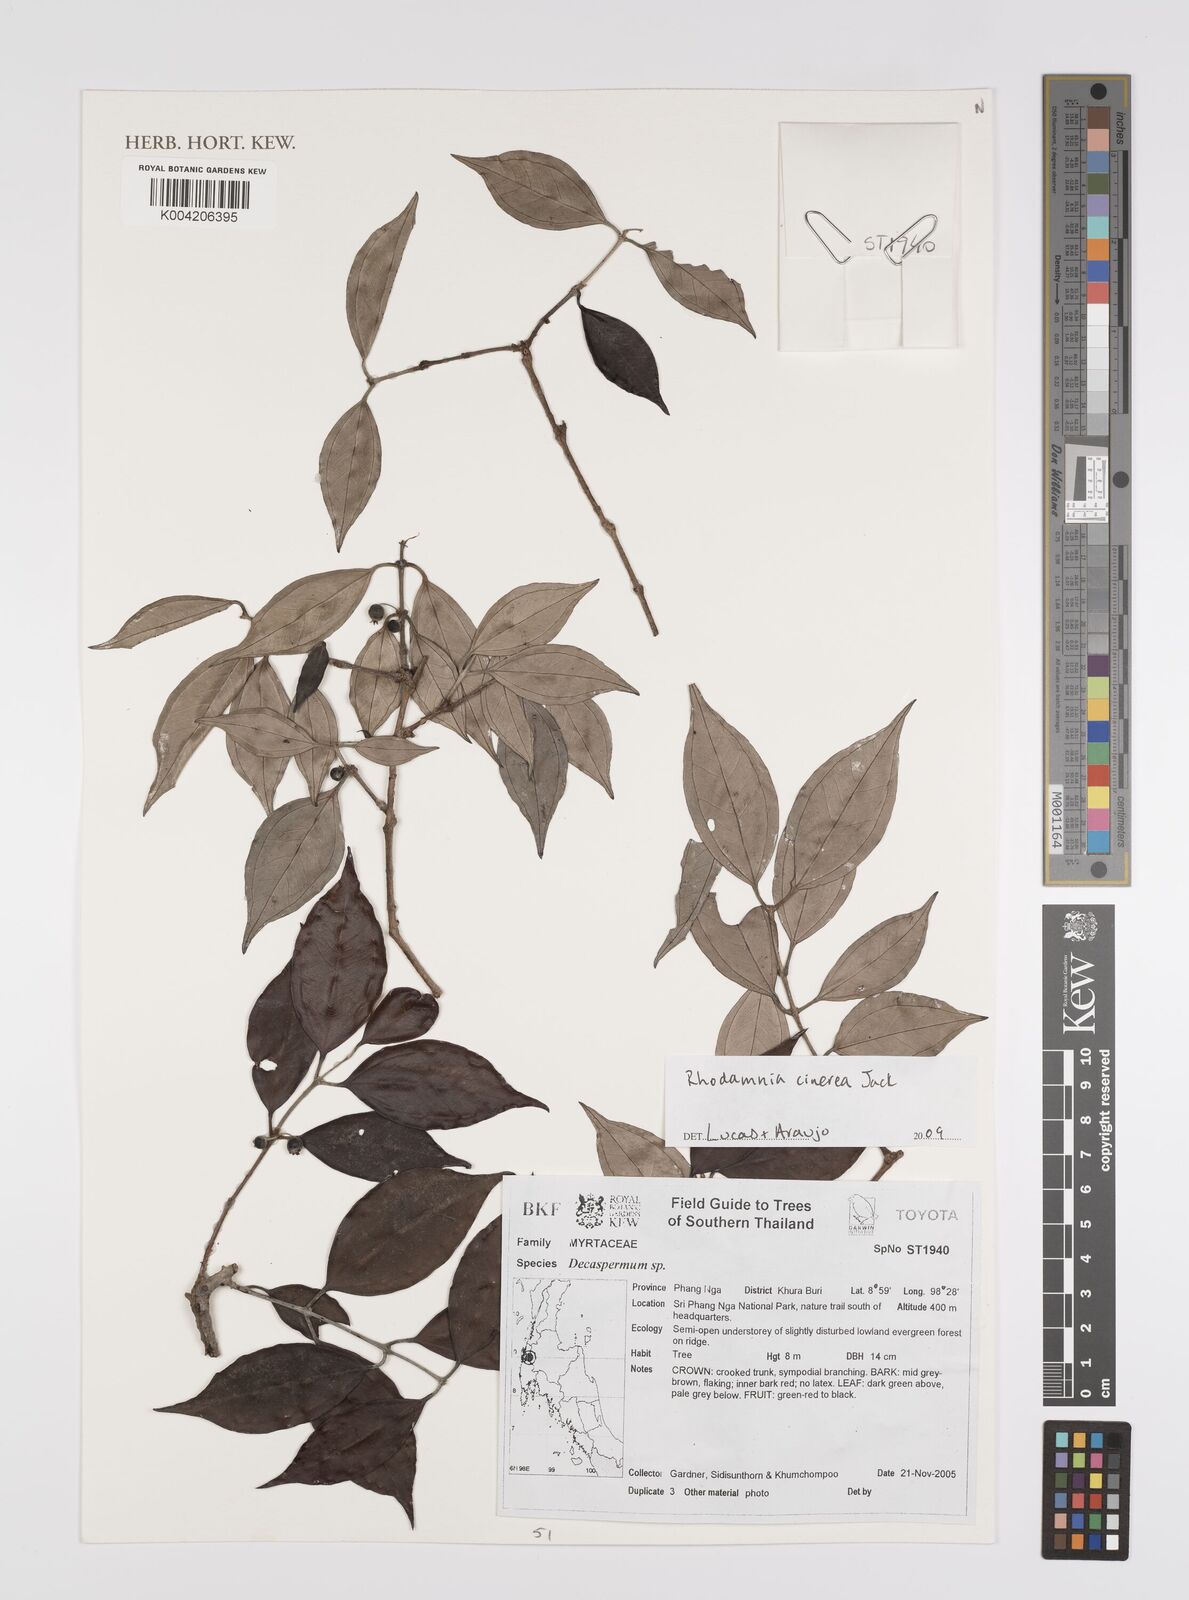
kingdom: Plantae
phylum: Tracheophyta
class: Magnoliopsida
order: Myrtales
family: Myrtaceae
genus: Rhodamnia
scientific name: Rhodamnia cinerea
